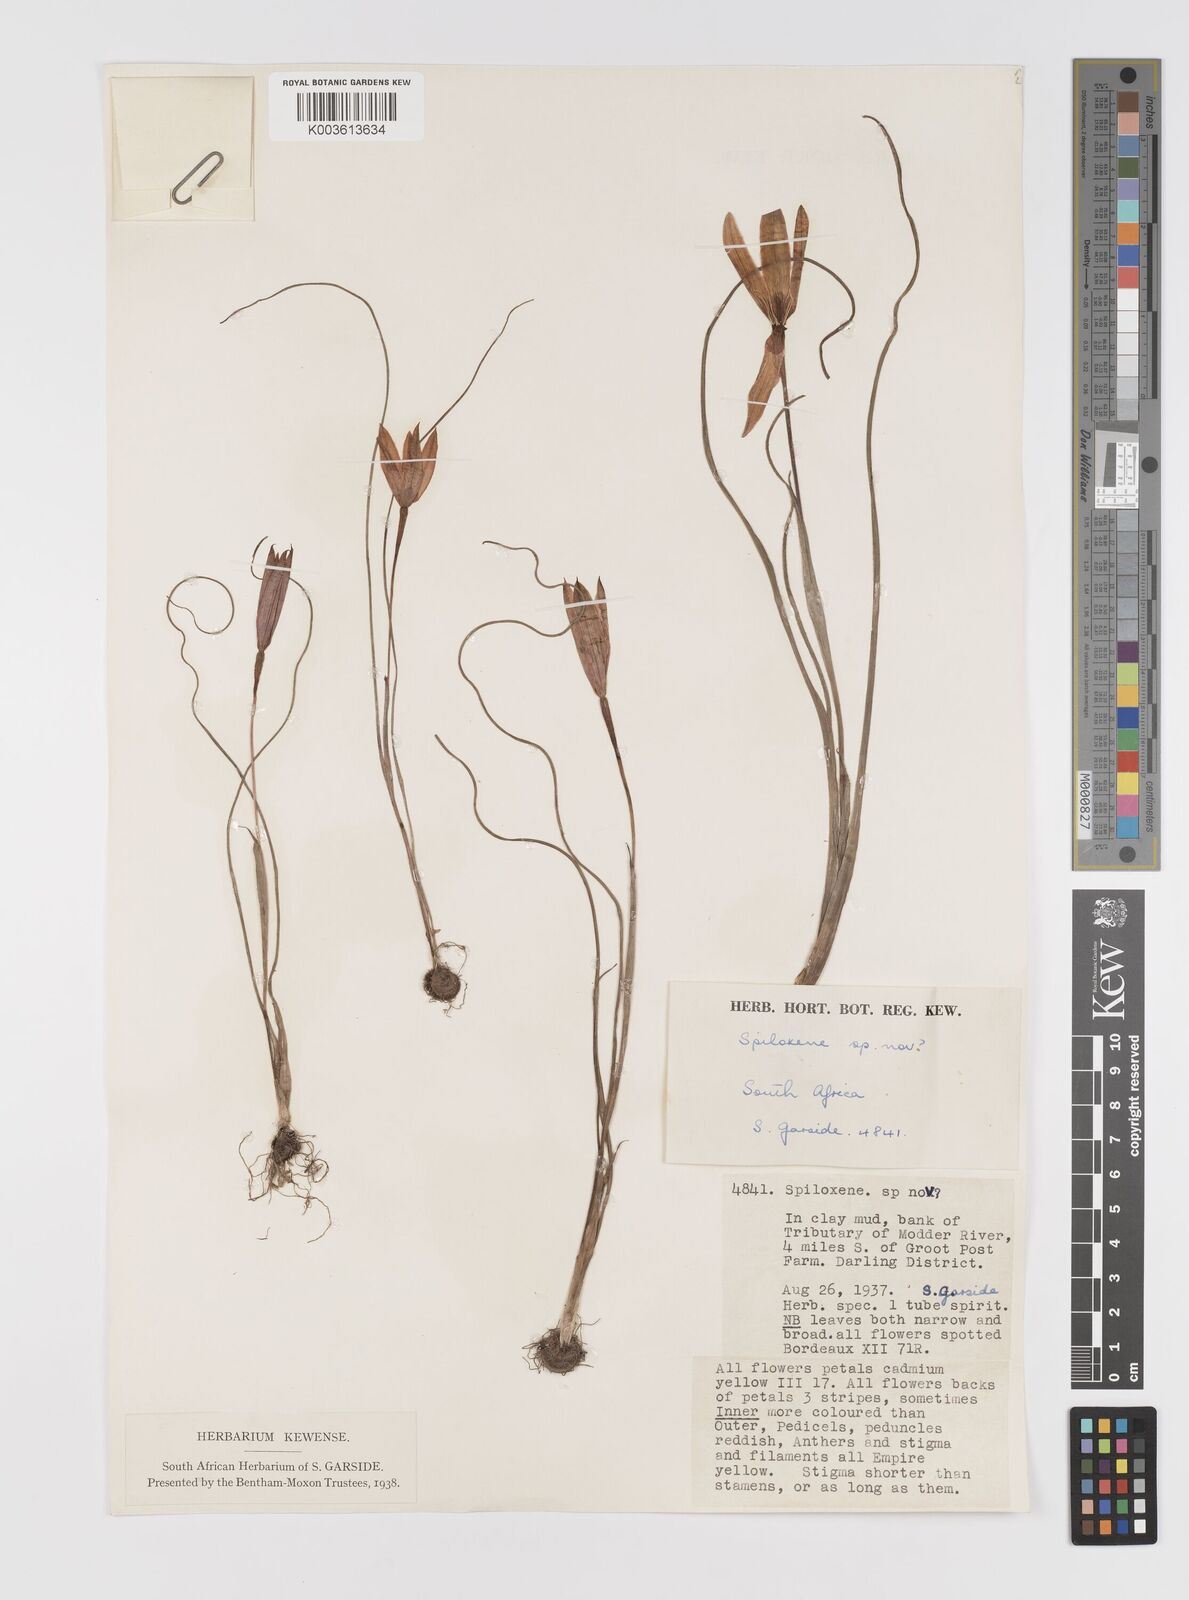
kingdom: Plantae
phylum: Tracheophyta
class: Liliopsida
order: Asparagales
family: Hypoxidaceae
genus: Pauridia
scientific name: Pauridia
